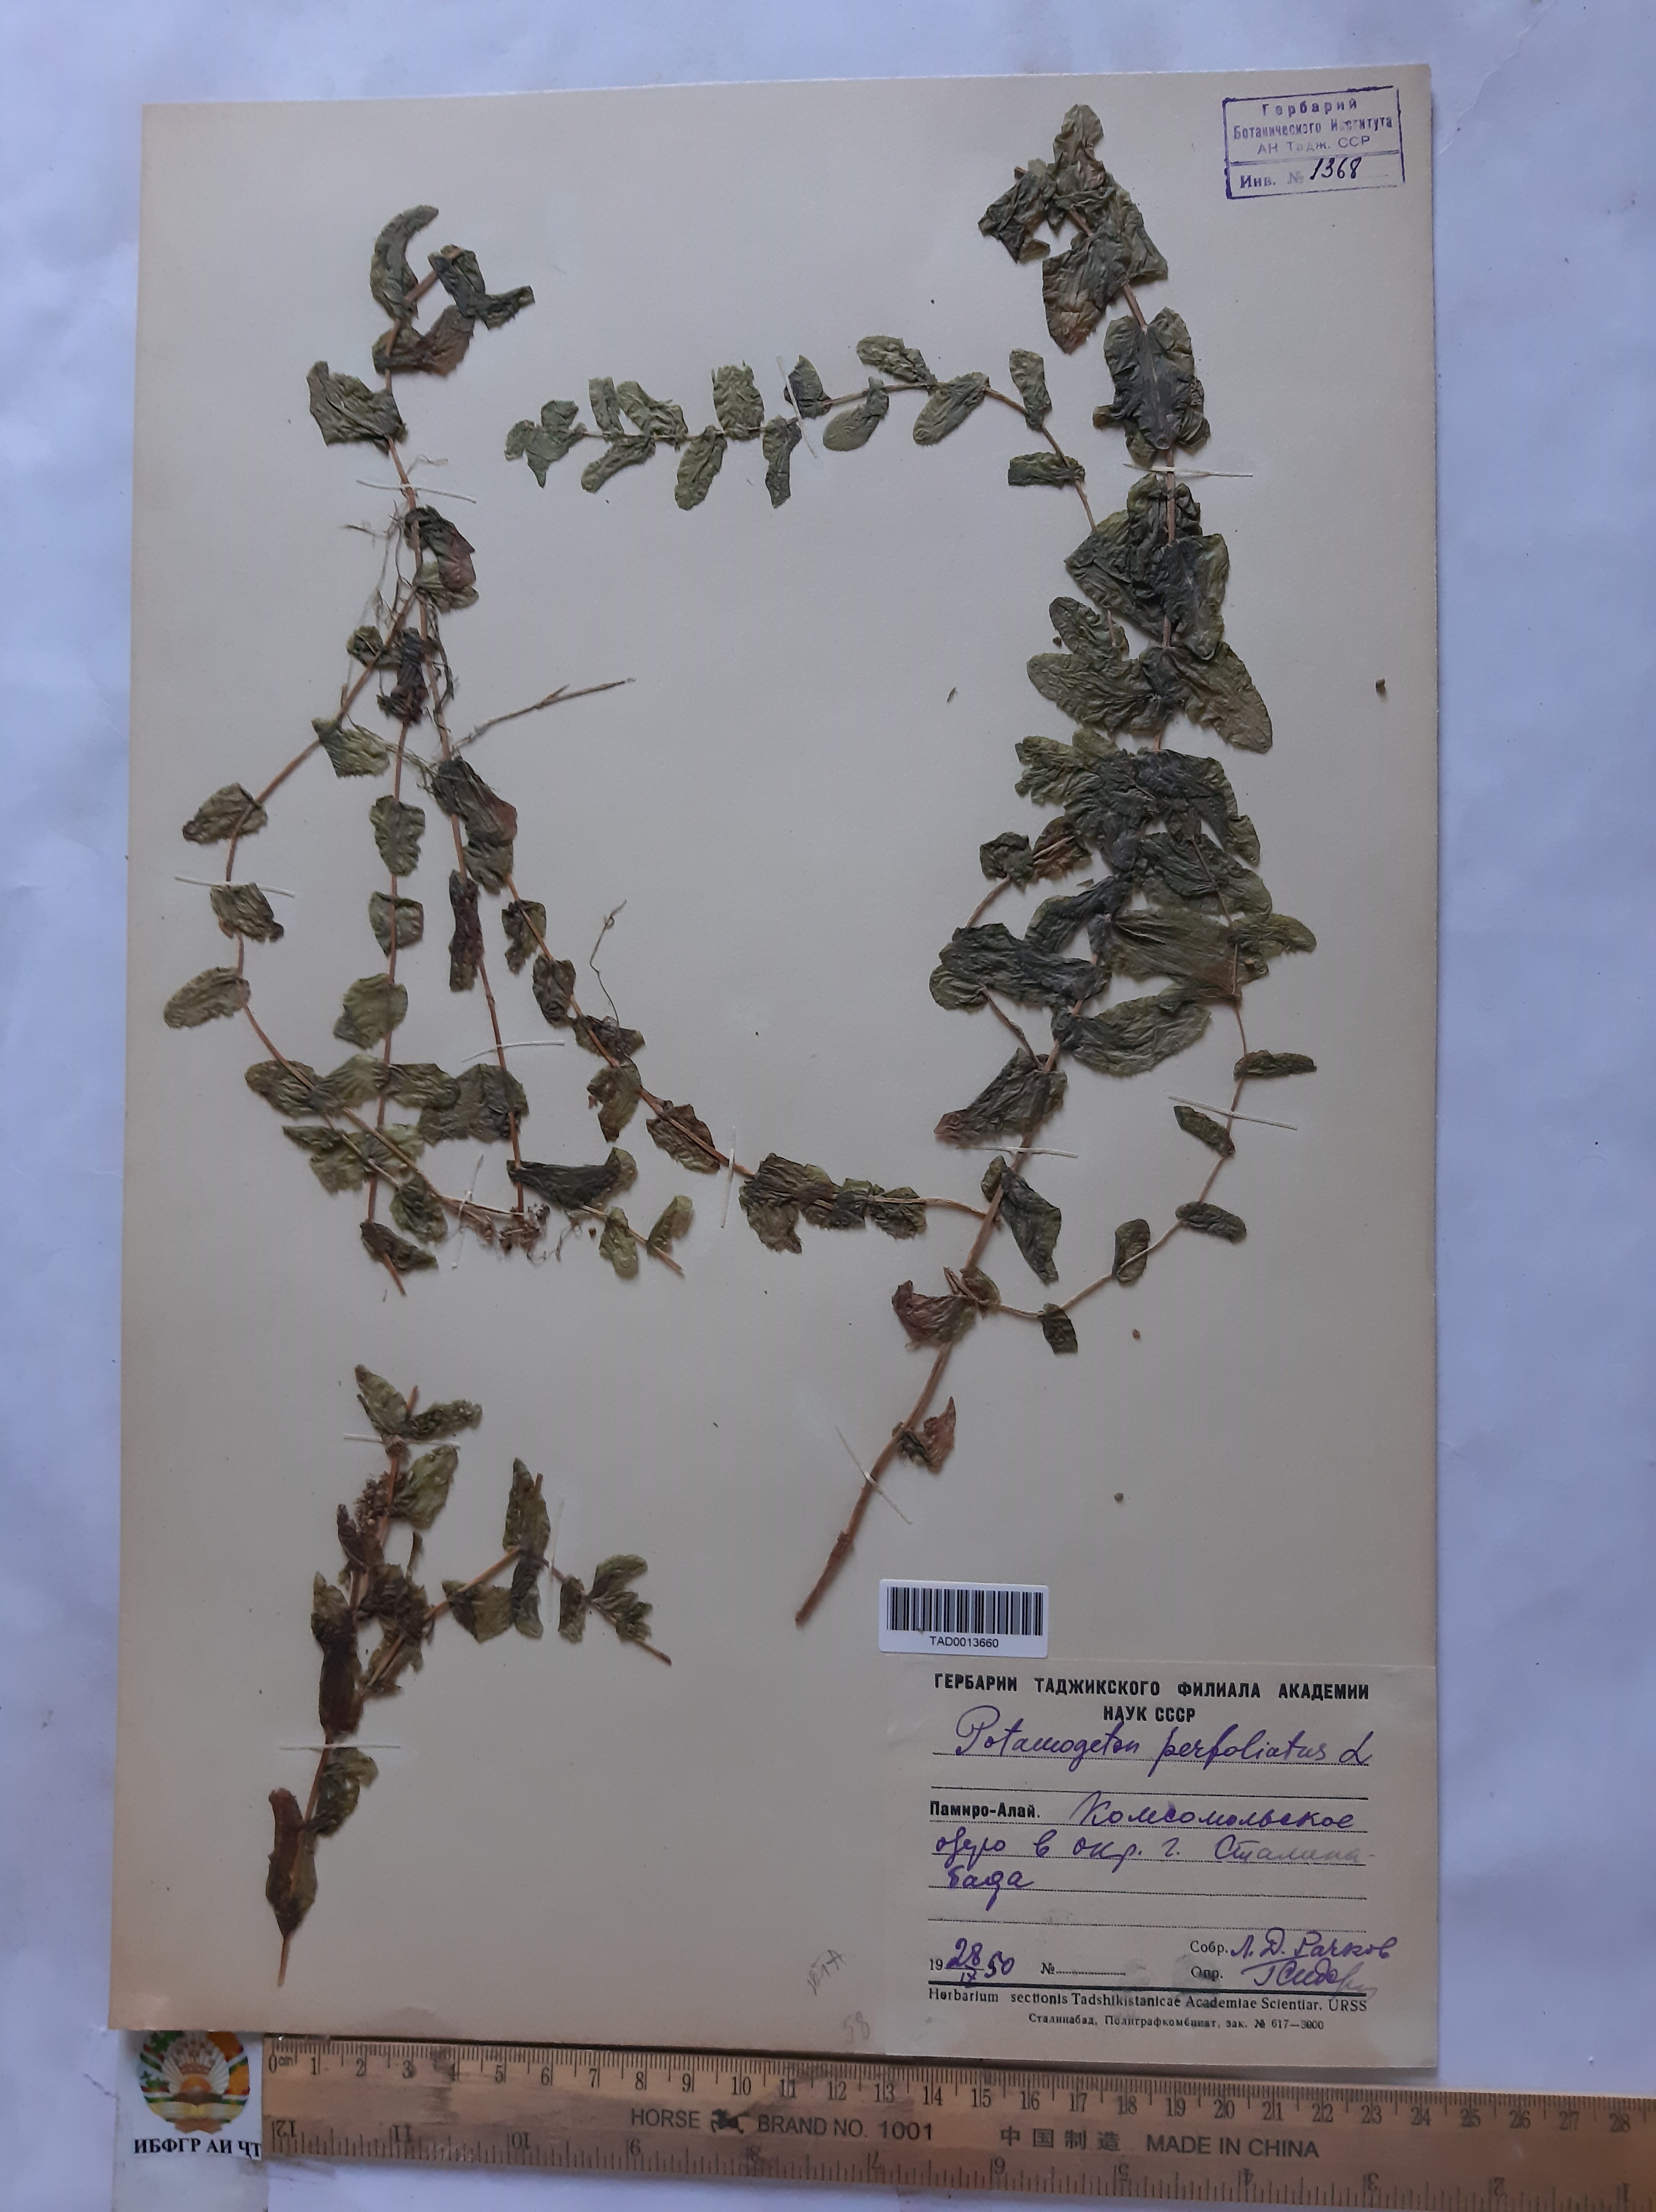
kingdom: Plantae
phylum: Tracheophyta
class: Liliopsida
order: Alismatales
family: Potamogetonaceae
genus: Potamogeton
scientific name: Potamogeton perfoliatus
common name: Perfoliate pondweed
